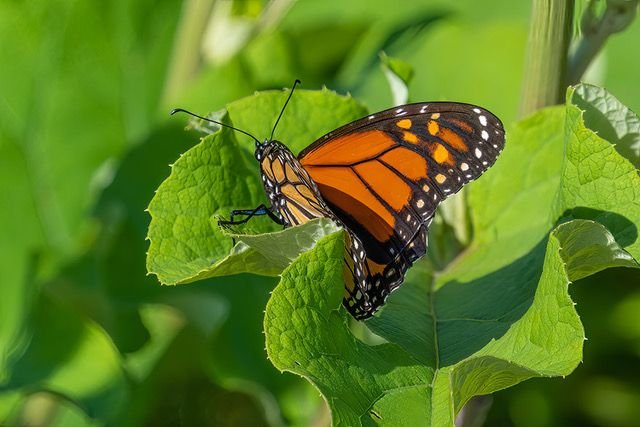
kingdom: Animalia
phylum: Arthropoda
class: Insecta
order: Lepidoptera
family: Nymphalidae
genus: Danaus
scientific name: Danaus plexippus
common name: Monarch
